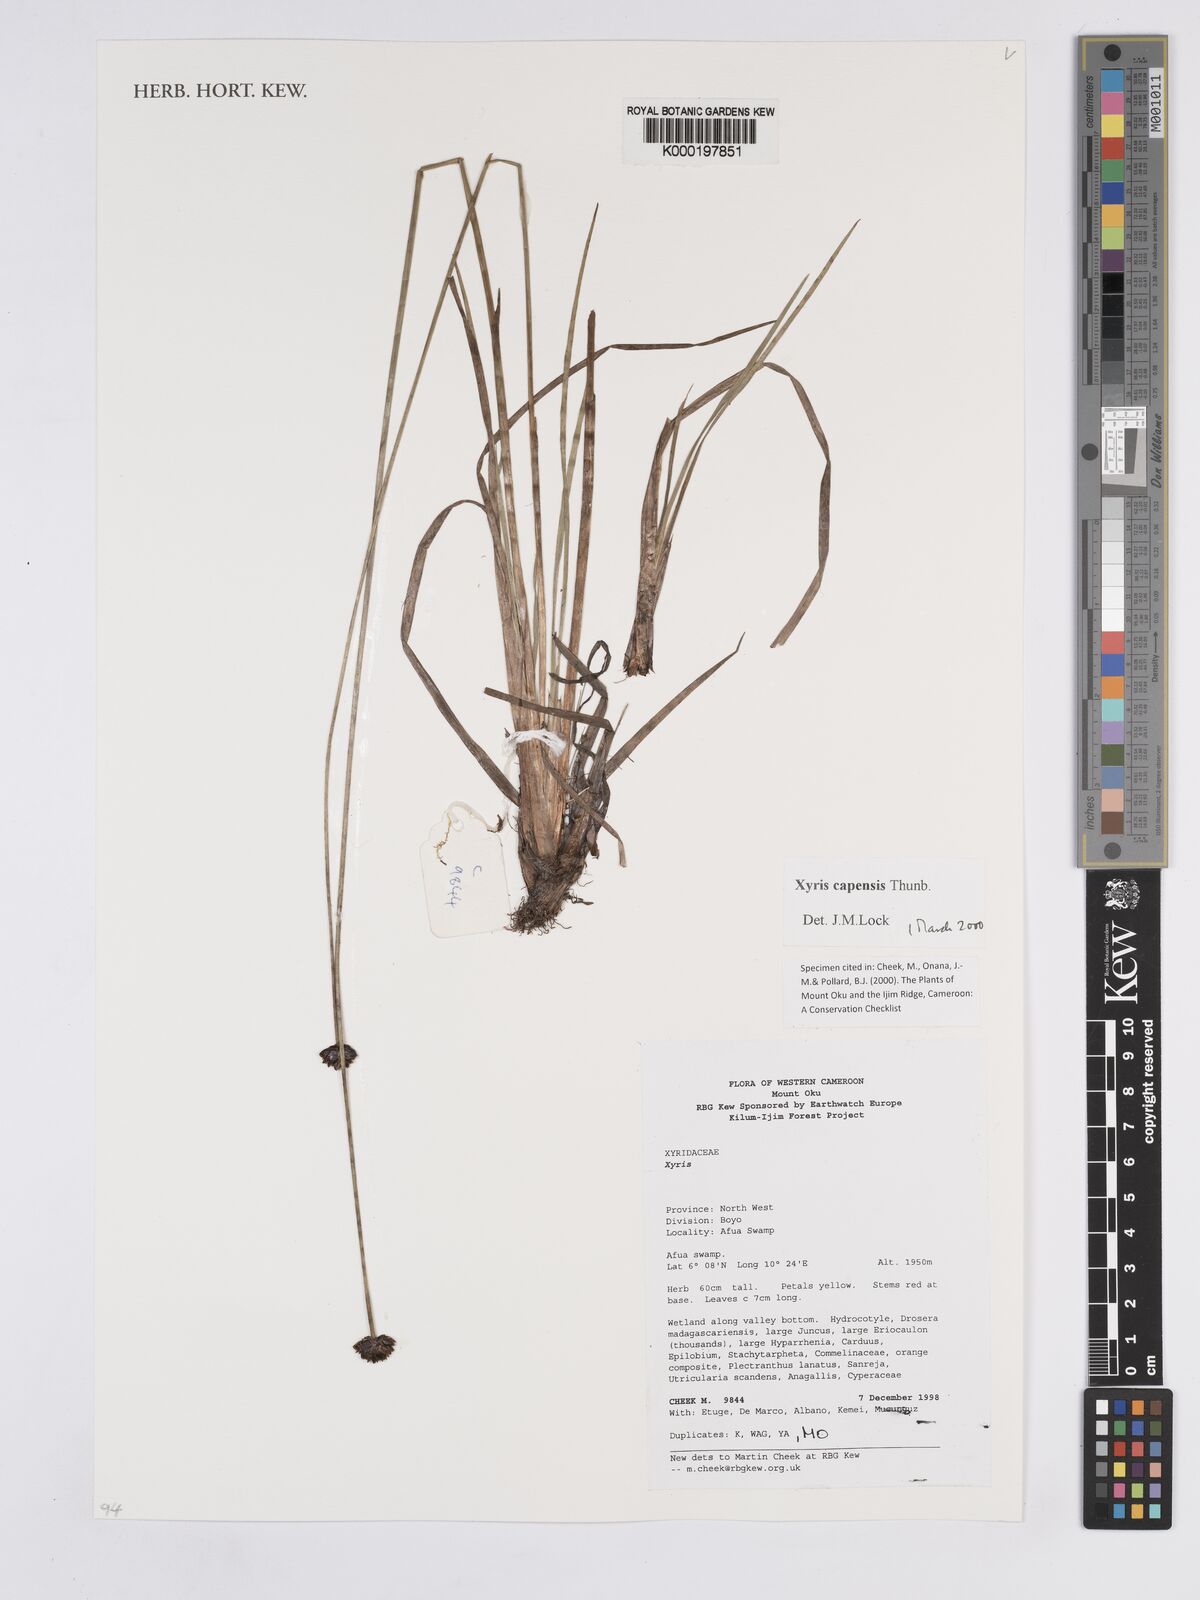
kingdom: Plantae
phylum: Tracheophyta
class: Liliopsida
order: Poales
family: Xyridaceae
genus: Xyris
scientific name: Xyris capensis
